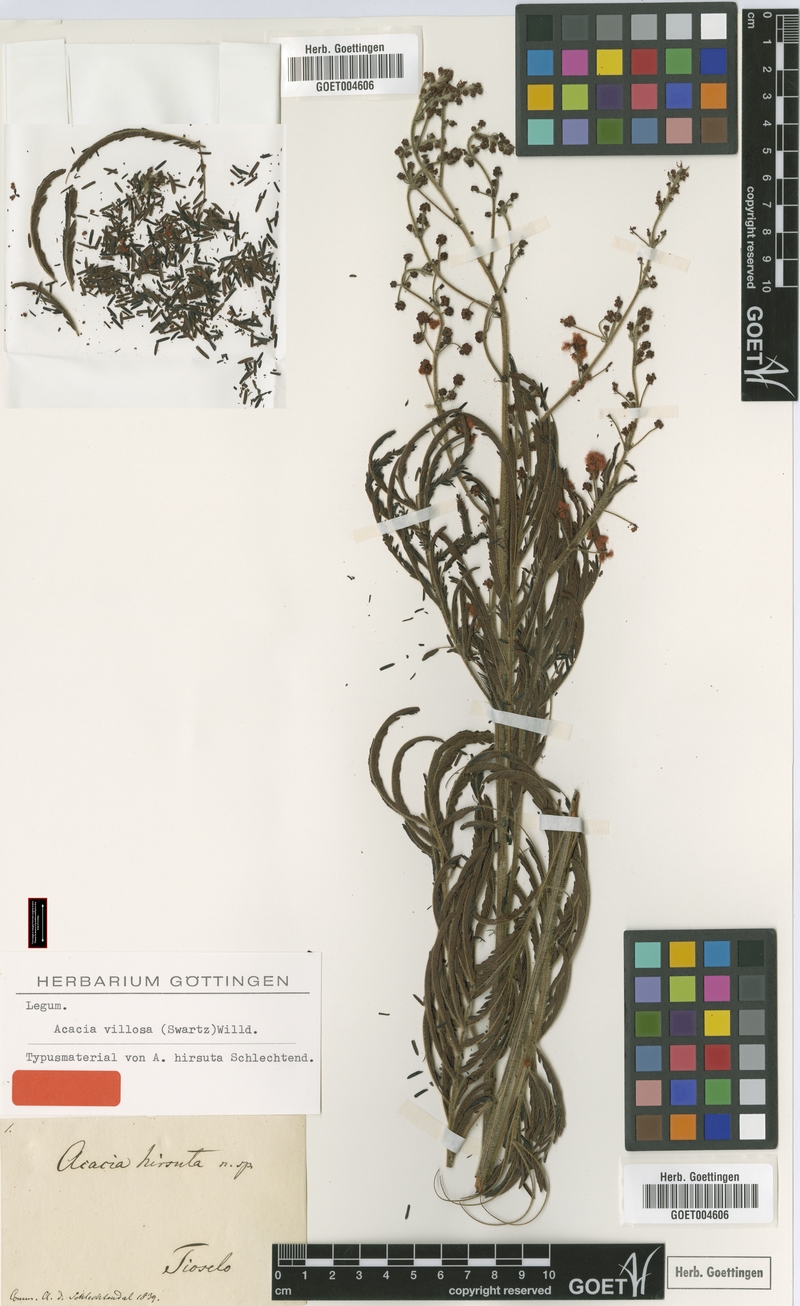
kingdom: Plantae
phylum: Tracheophyta
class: Magnoliopsida
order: Fabales
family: Fabaceae
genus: Acaciella
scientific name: Acaciella villosa
